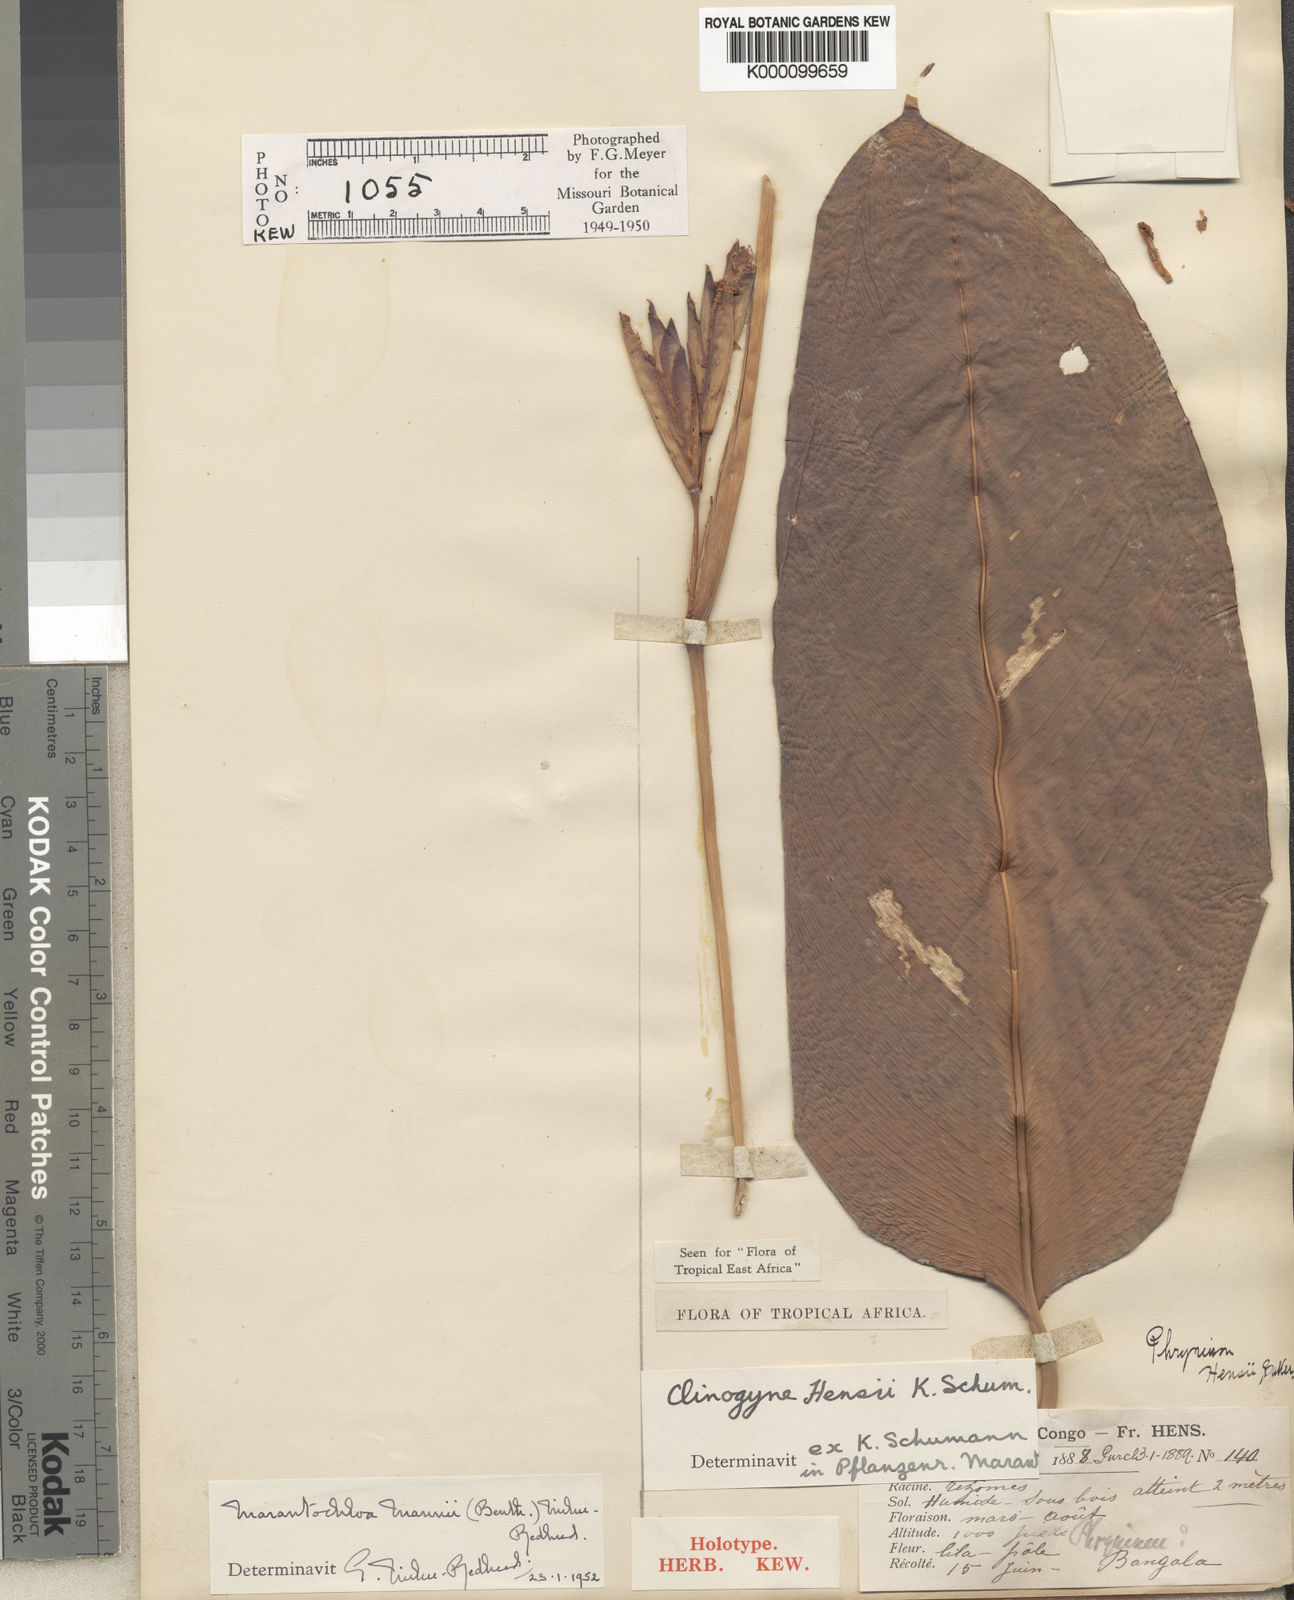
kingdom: Plantae
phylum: Tracheophyta
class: Liliopsida
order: Zingiberales
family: Marantaceae
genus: Marantochloa
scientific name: Marantochloa mannii
